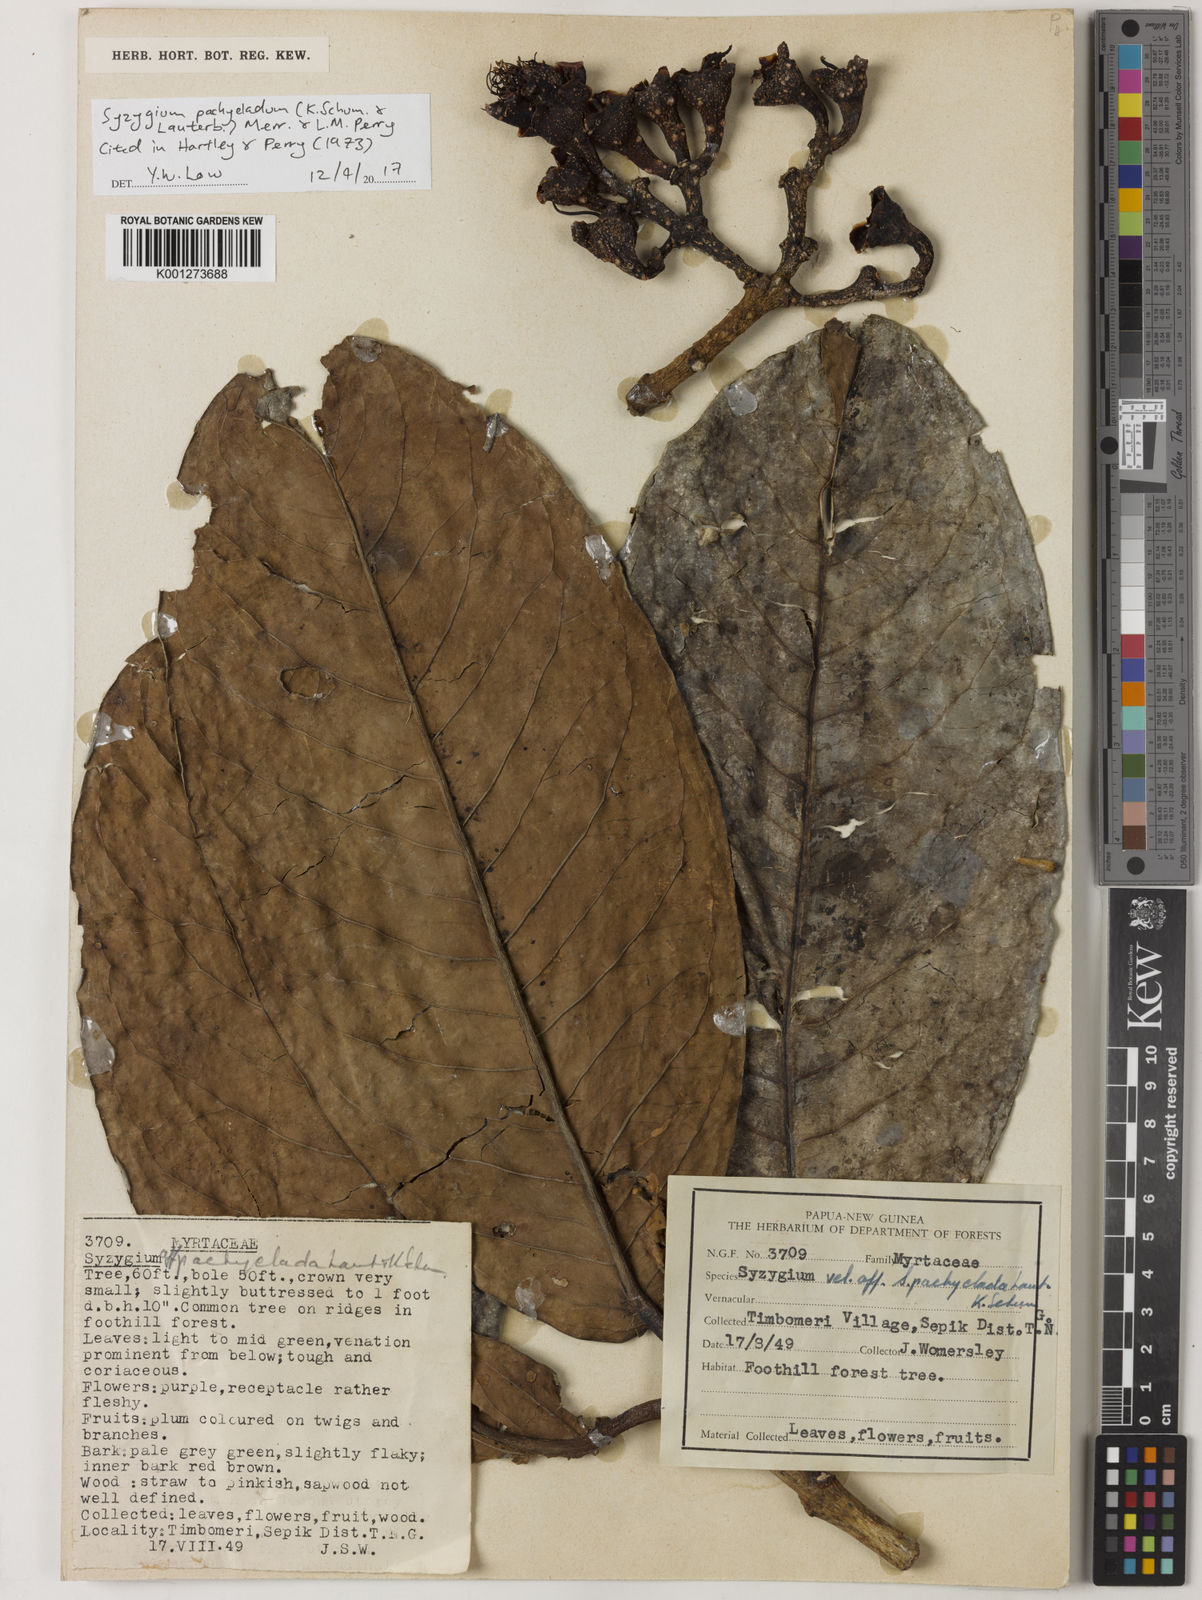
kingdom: Plantae
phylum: Tracheophyta
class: Magnoliopsida
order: Myrtales
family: Myrtaceae
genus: Syzygium
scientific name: Syzygium pachycladum
